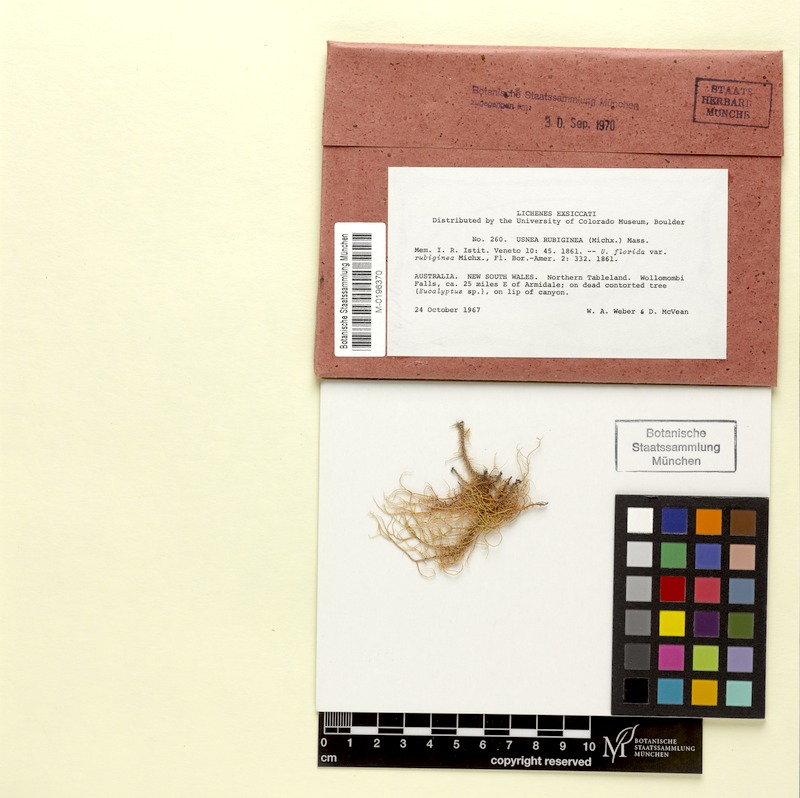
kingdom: Fungi
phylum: Ascomycota
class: Lecanoromycetes
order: Lecanorales
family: Parmeliaceae
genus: Usnea
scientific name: Usnea strigosa
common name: Bushy beard lichen
